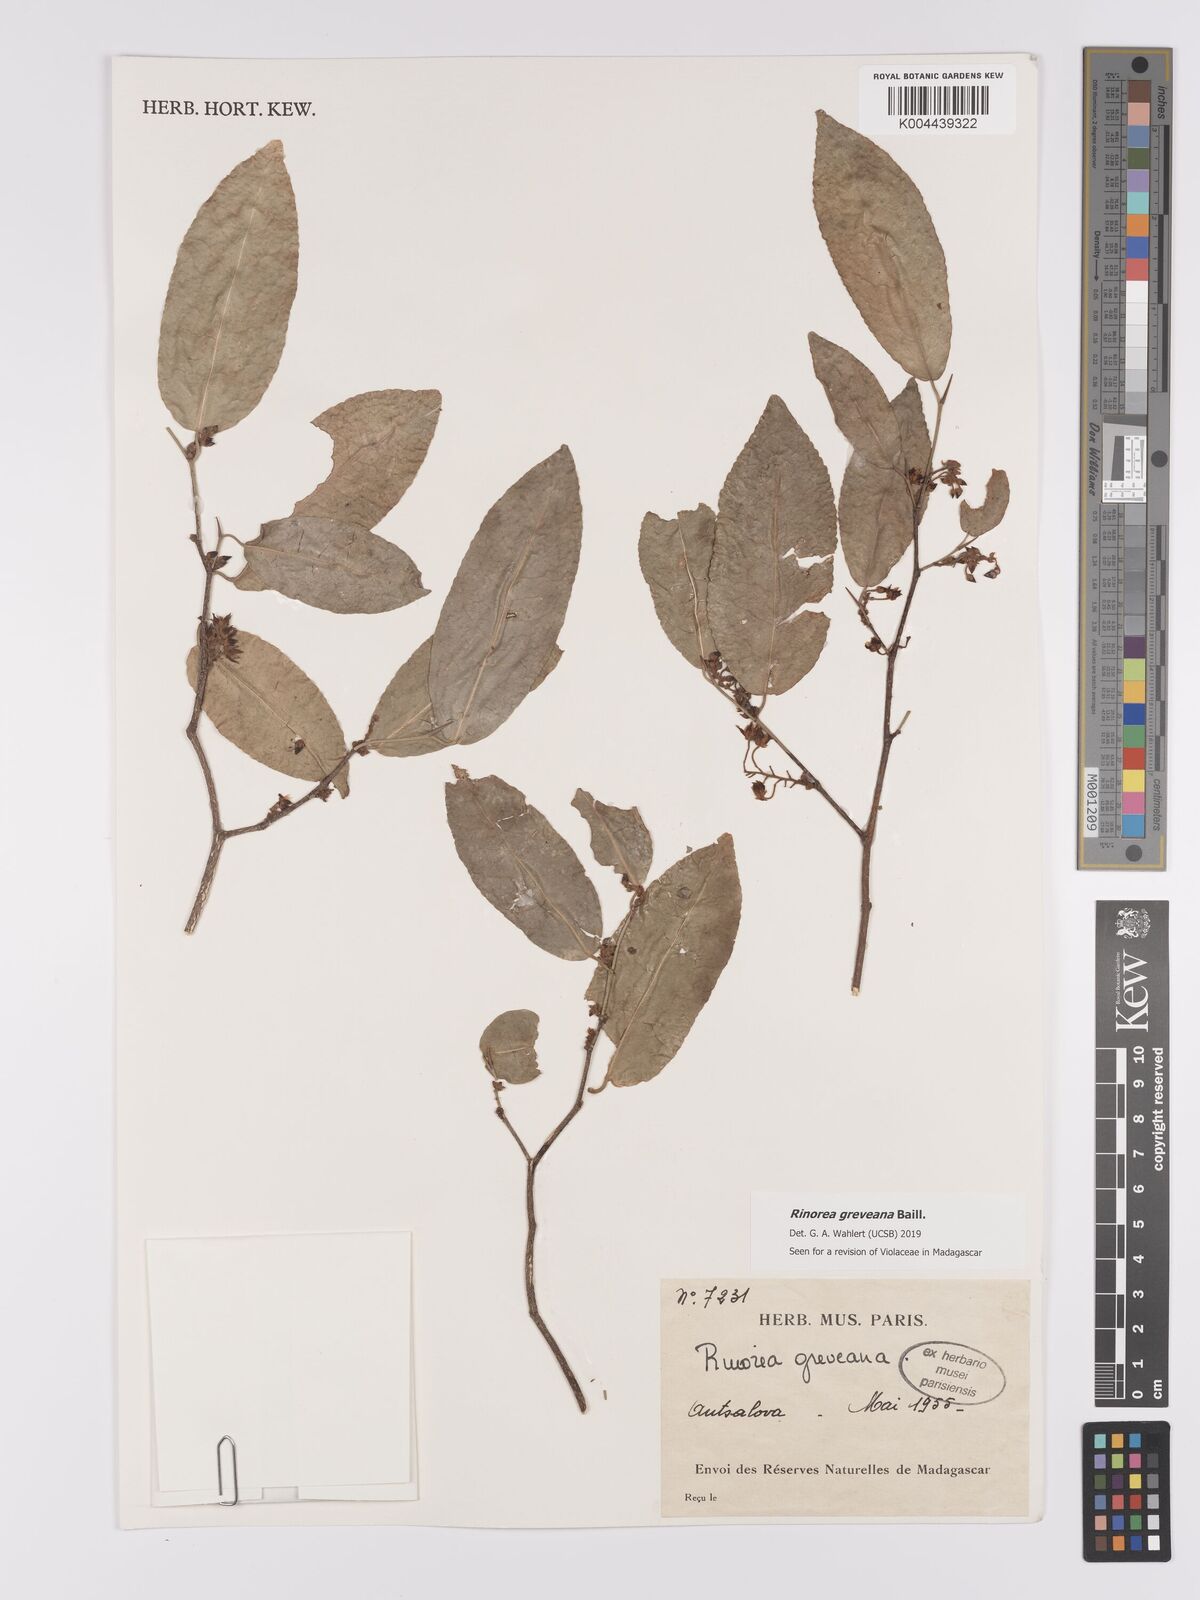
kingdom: Plantae
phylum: Tracheophyta
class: Magnoliopsida
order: Malpighiales
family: Violaceae
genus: Rinorea
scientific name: Rinorea greveana
